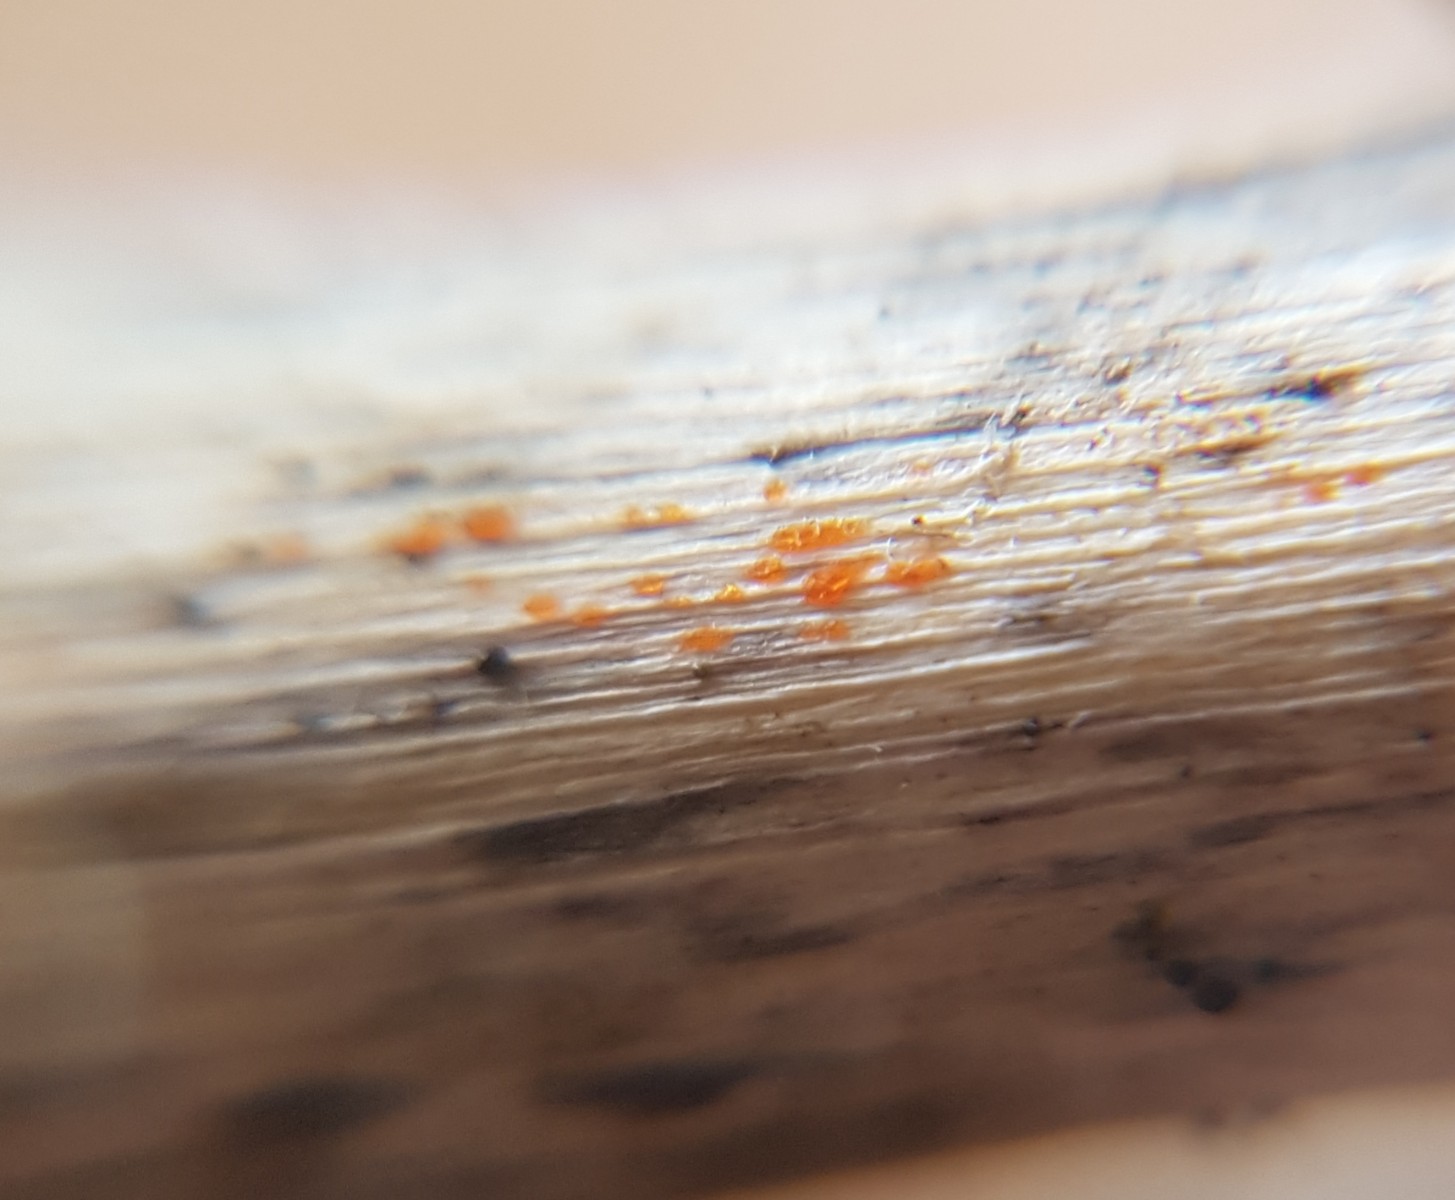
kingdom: Fungi
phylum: Ascomycota
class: Leotiomycetes
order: Helotiales
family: Calloriaceae
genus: Calloria
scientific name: Calloria urticae
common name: nælde-orangeskive
